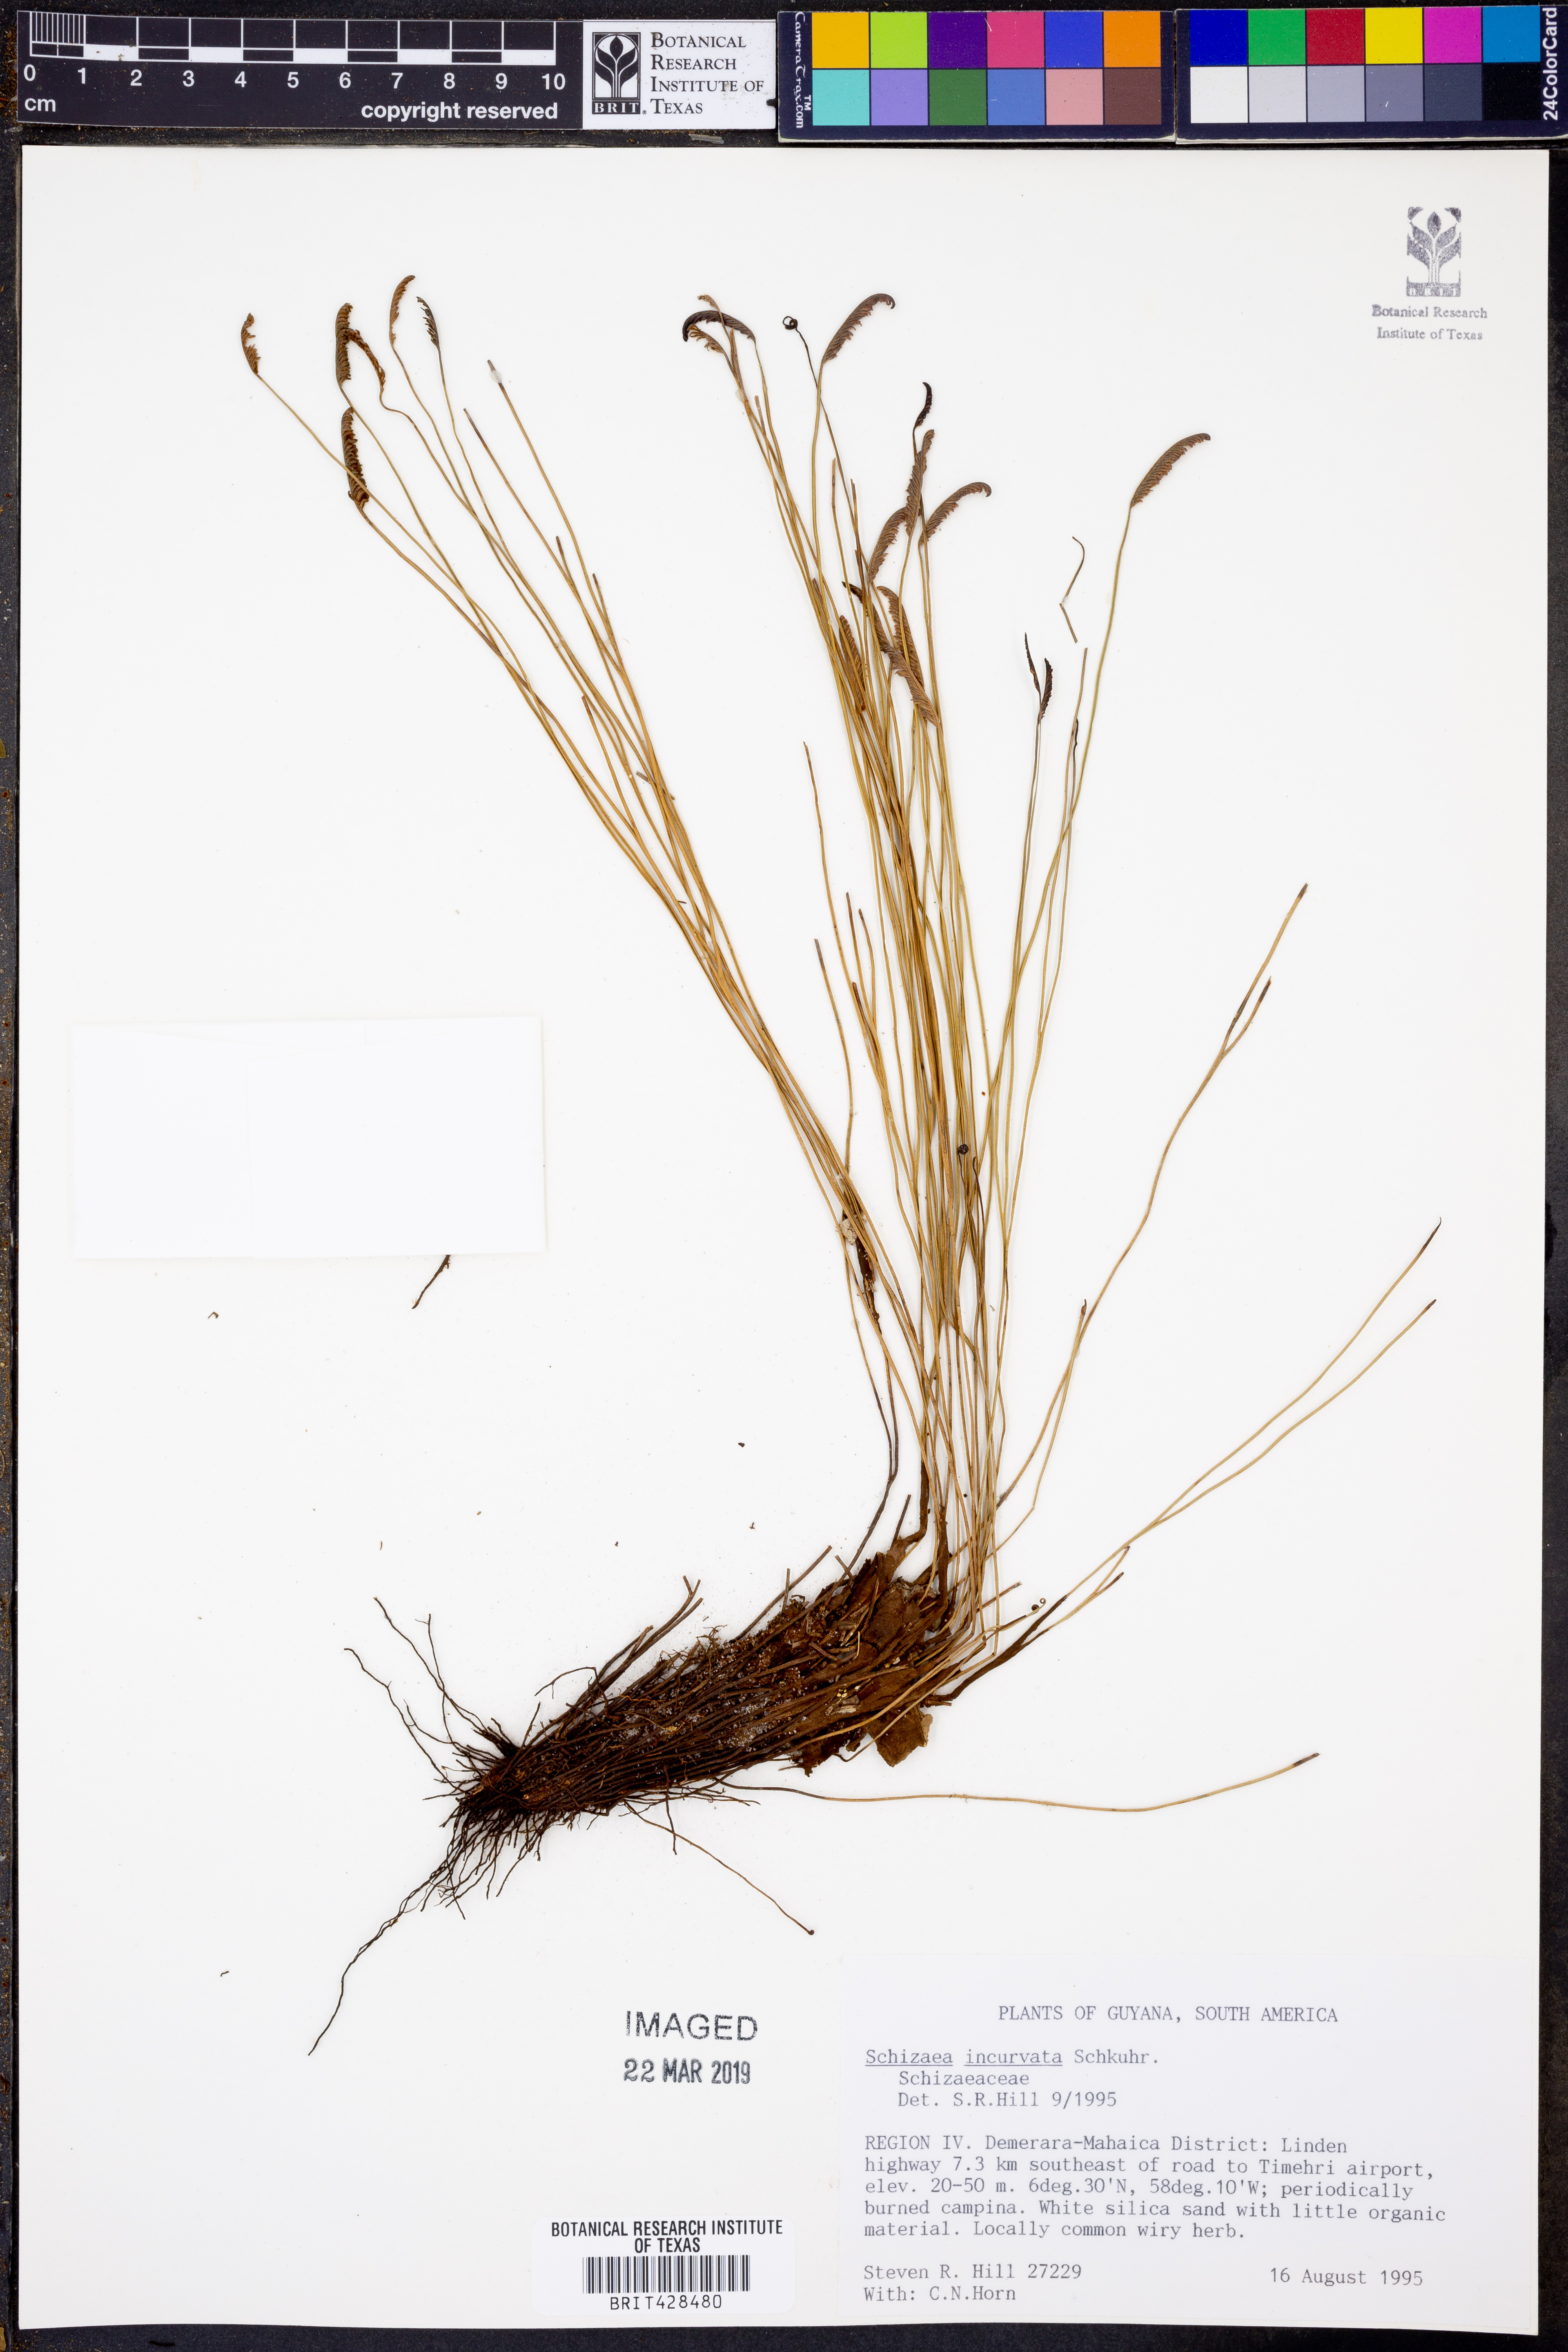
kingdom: Plantae
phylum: Tracheophyta
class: Polypodiopsida
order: Schizaeales
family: Schizaeaceae
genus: Schizaea
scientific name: Schizaea incurvata
